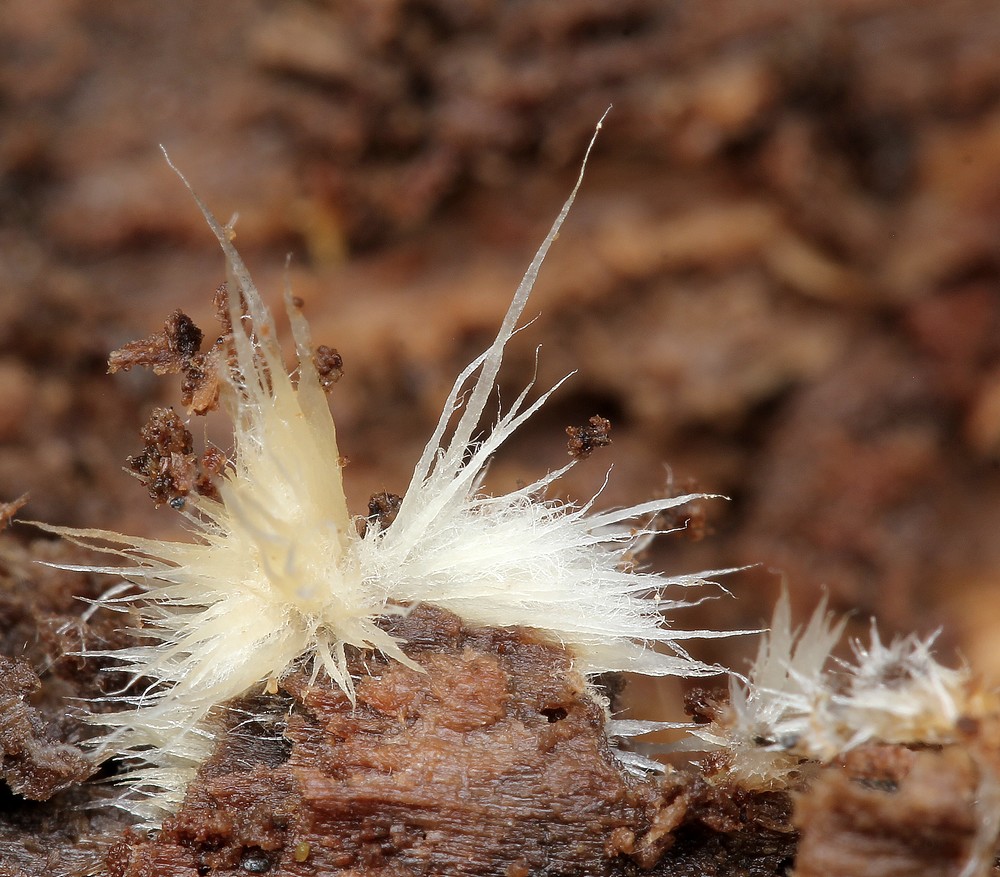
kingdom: Fungi
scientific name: Fungi
